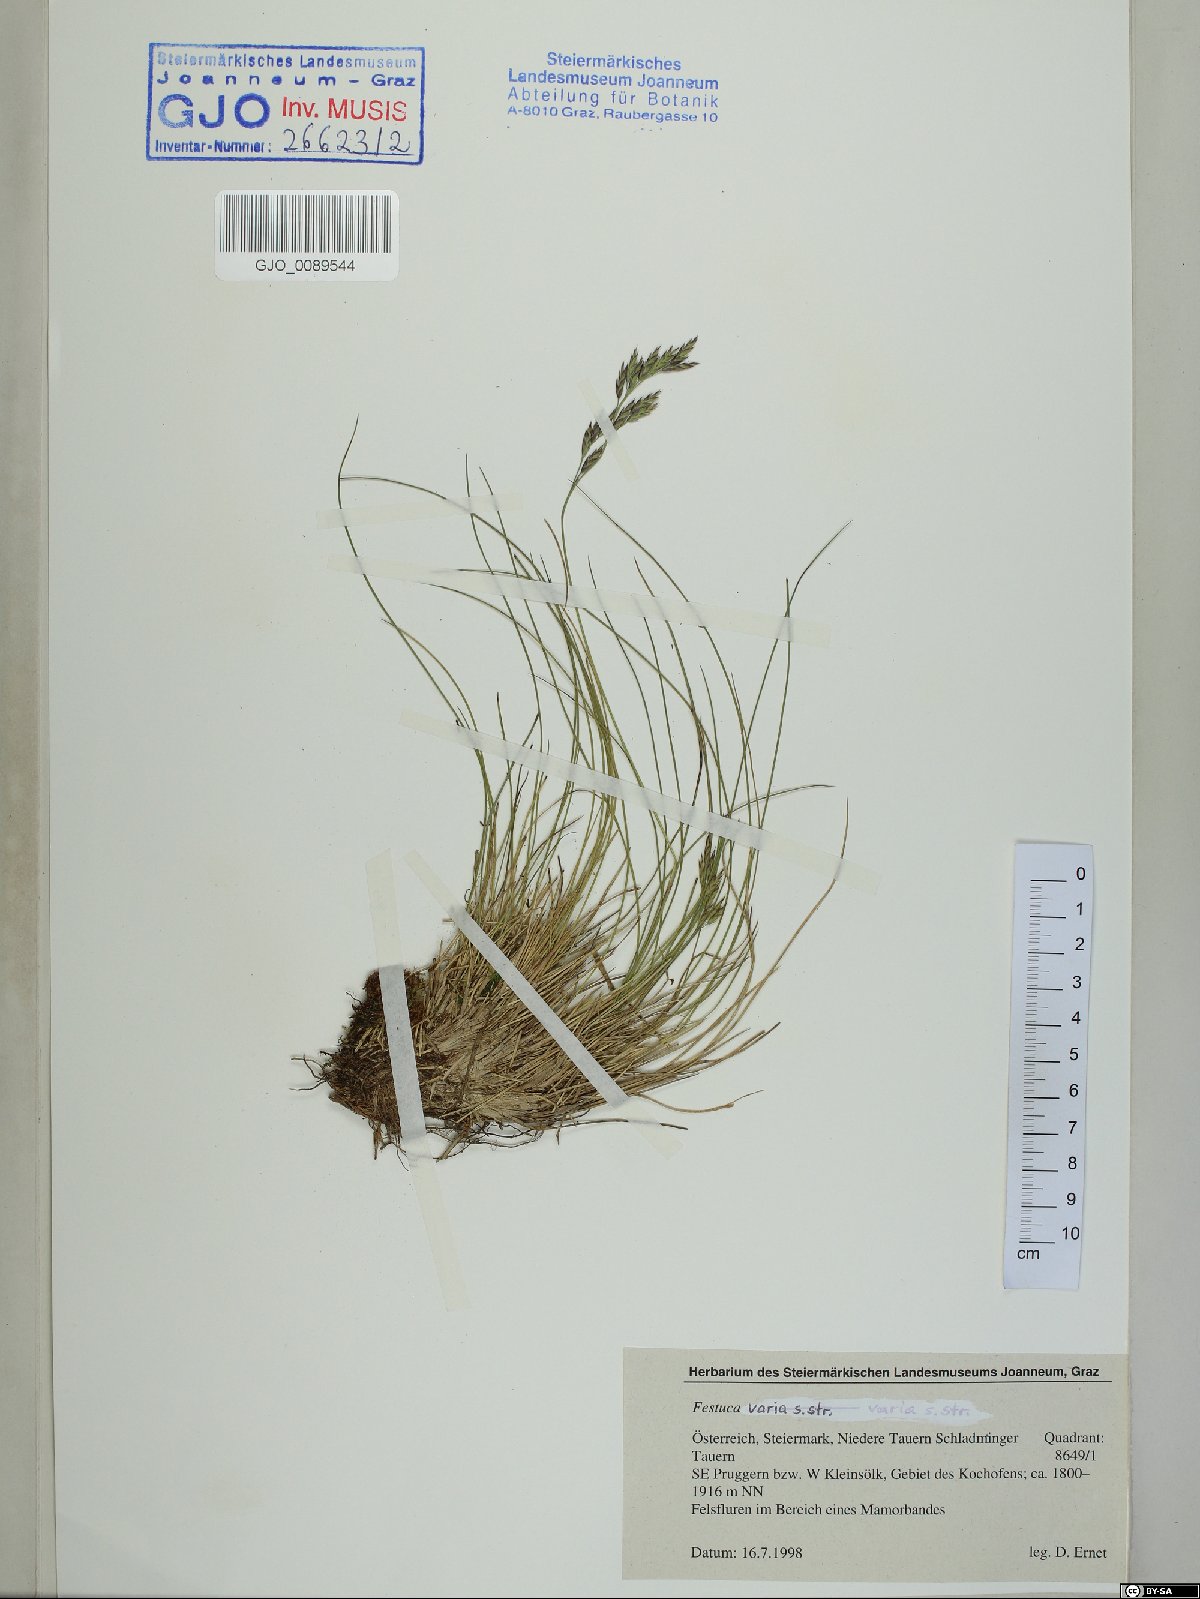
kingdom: Plantae
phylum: Tracheophyta
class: Liliopsida
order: Poales
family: Poaceae
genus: Festuca
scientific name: Festuca varia
